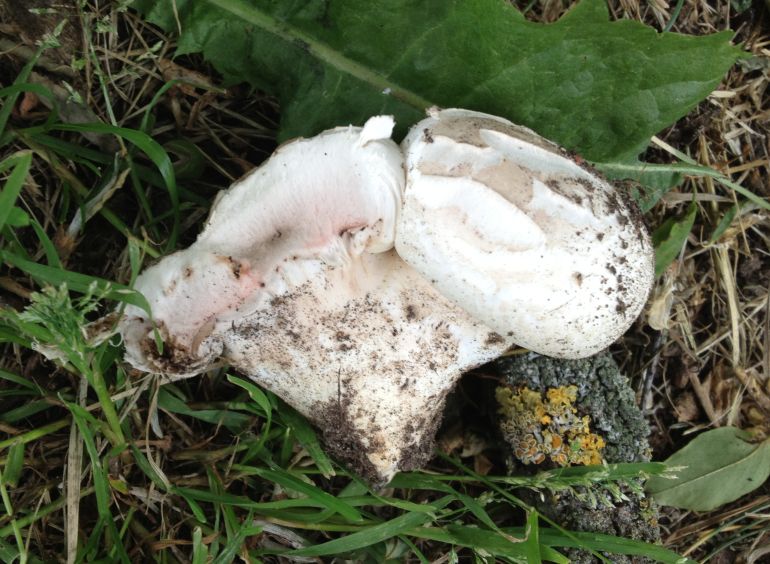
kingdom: Fungi
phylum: Basidiomycota
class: Agaricomycetes
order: Agaricales
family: Agaricaceae
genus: Agaricus
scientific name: Agaricus bitorquis
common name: vej-champignon
